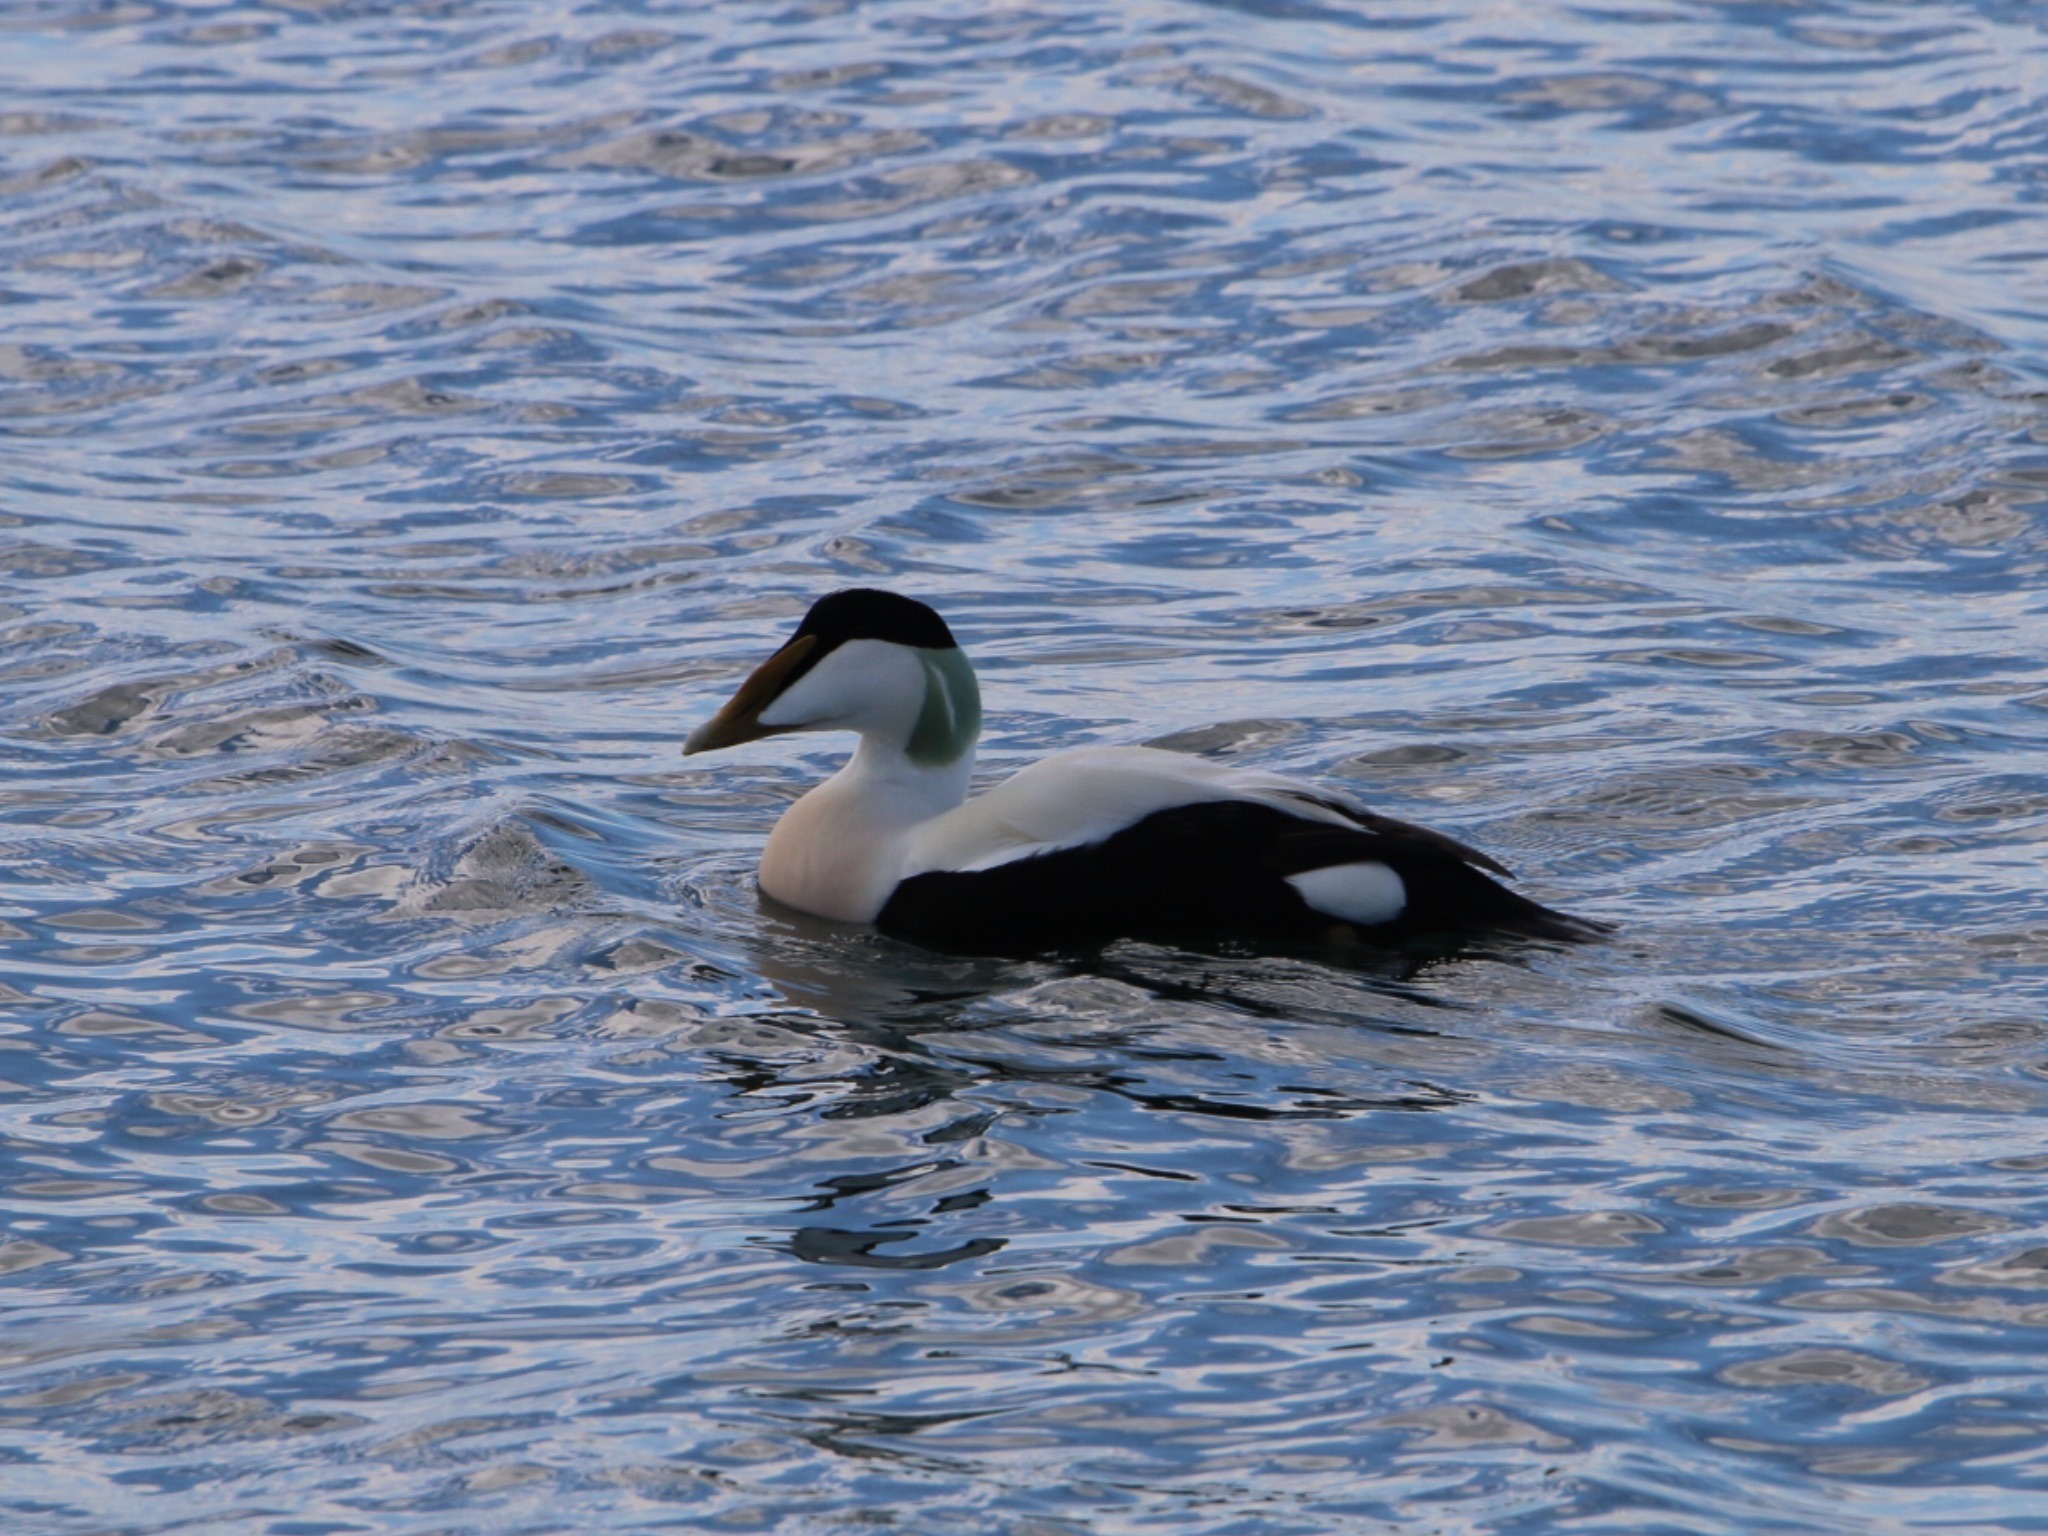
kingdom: Animalia
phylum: Chordata
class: Aves
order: Anseriformes
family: Anatidae
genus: Somateria
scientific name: Somateria mollissima
